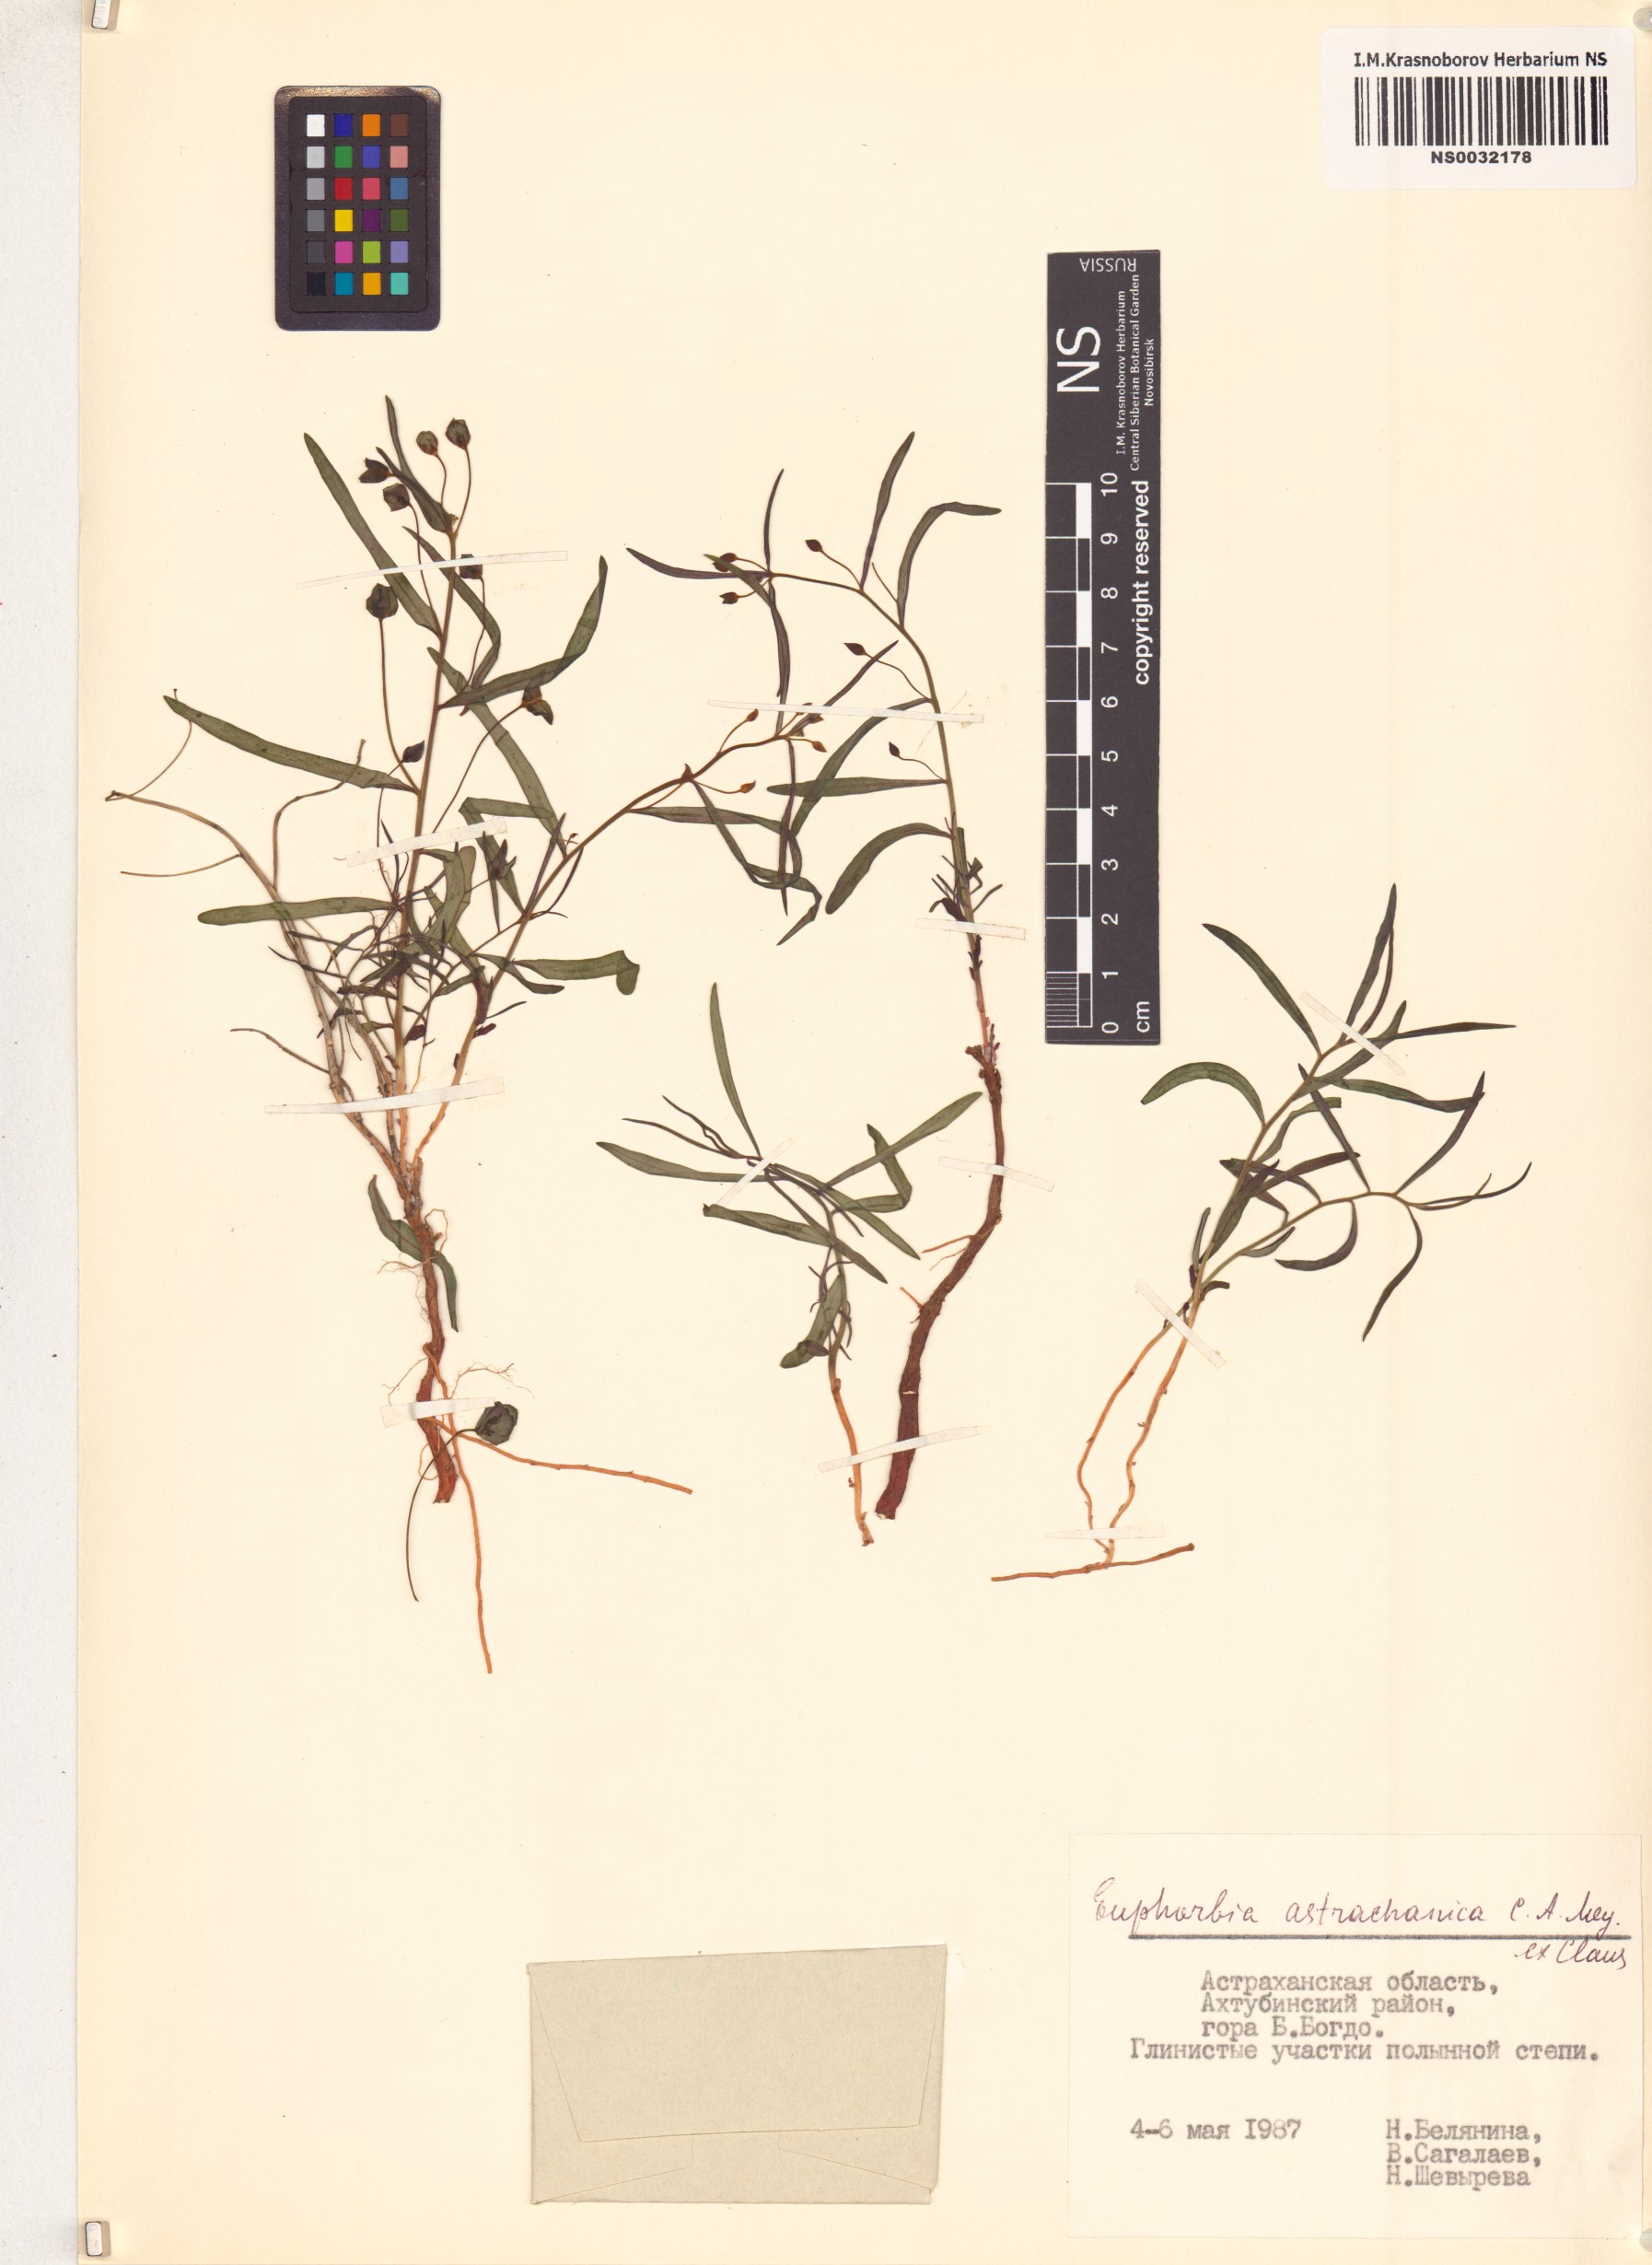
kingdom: Plantae
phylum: Tracheophyta
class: Magnoliopsida
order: Malpighiales
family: Euphorbiaceae
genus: Euphorbia
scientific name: Euphorbia astrachanica
